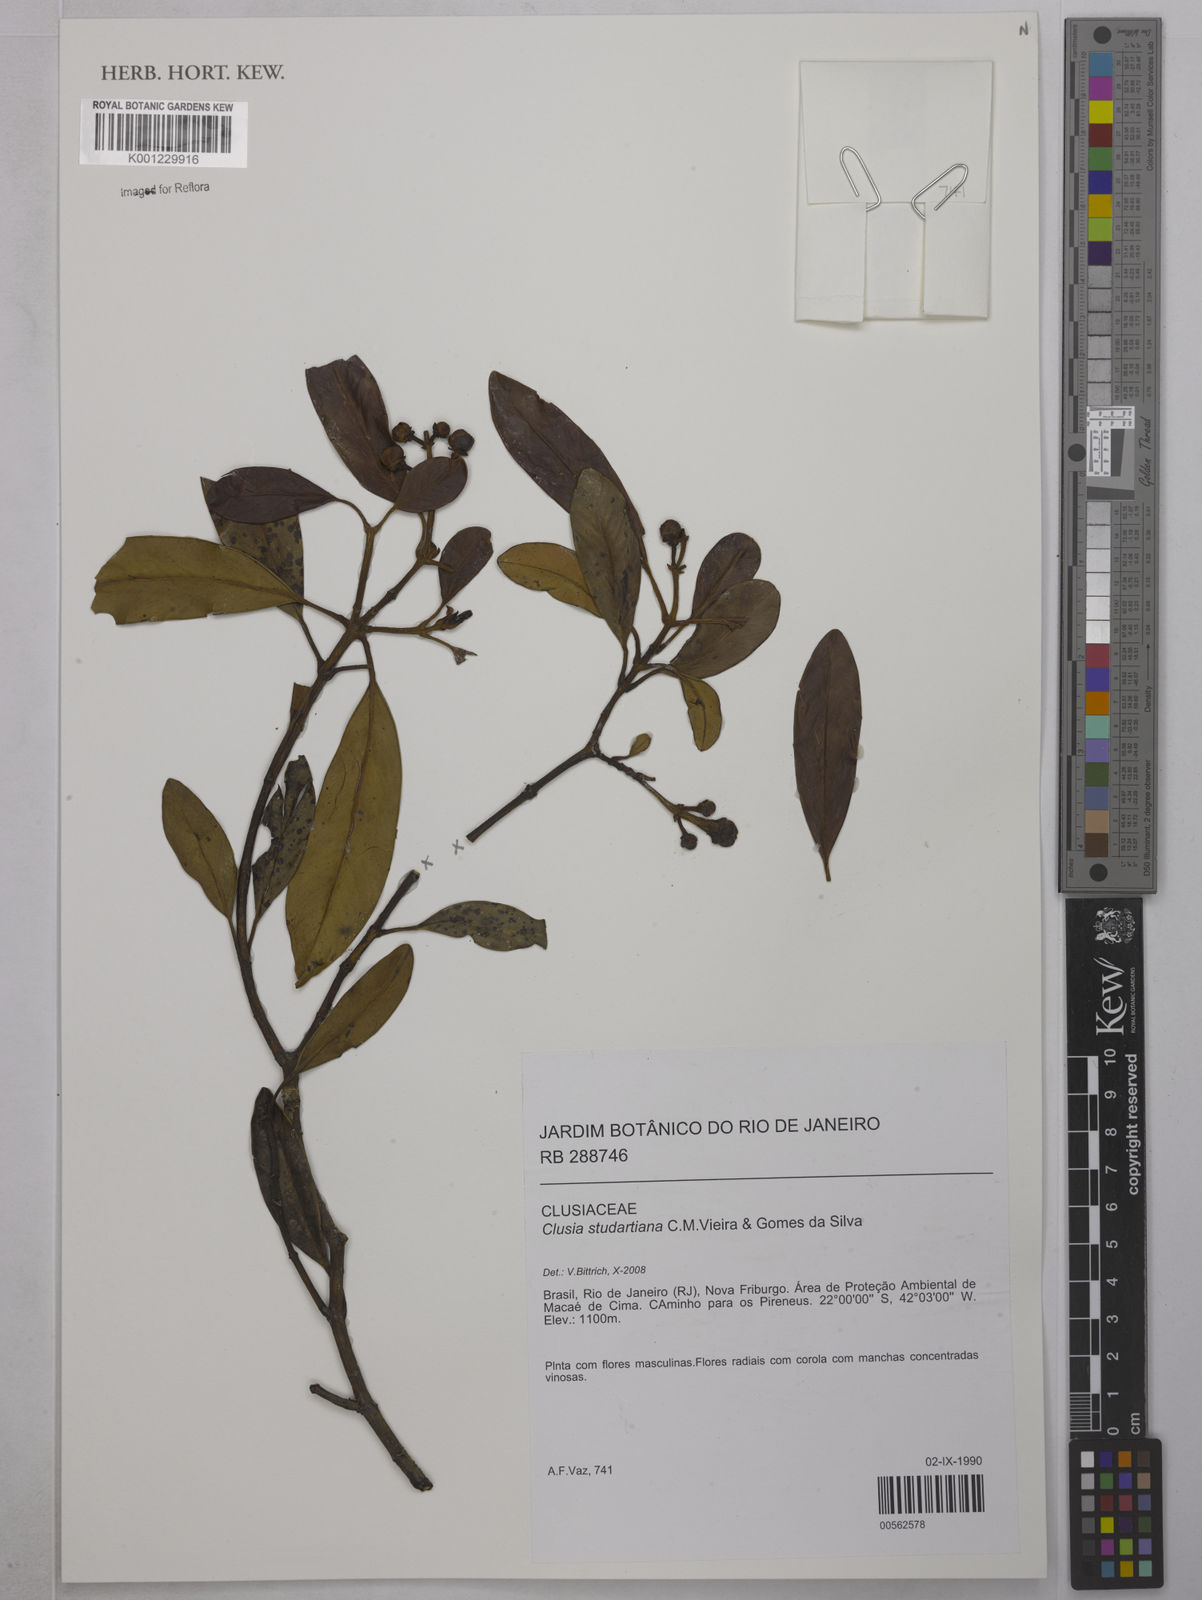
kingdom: Plantae
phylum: Tracheophyta
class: Magnoliopsida
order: Malpighiales
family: Clusiaceae
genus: Clusia
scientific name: Clusia studartiana
